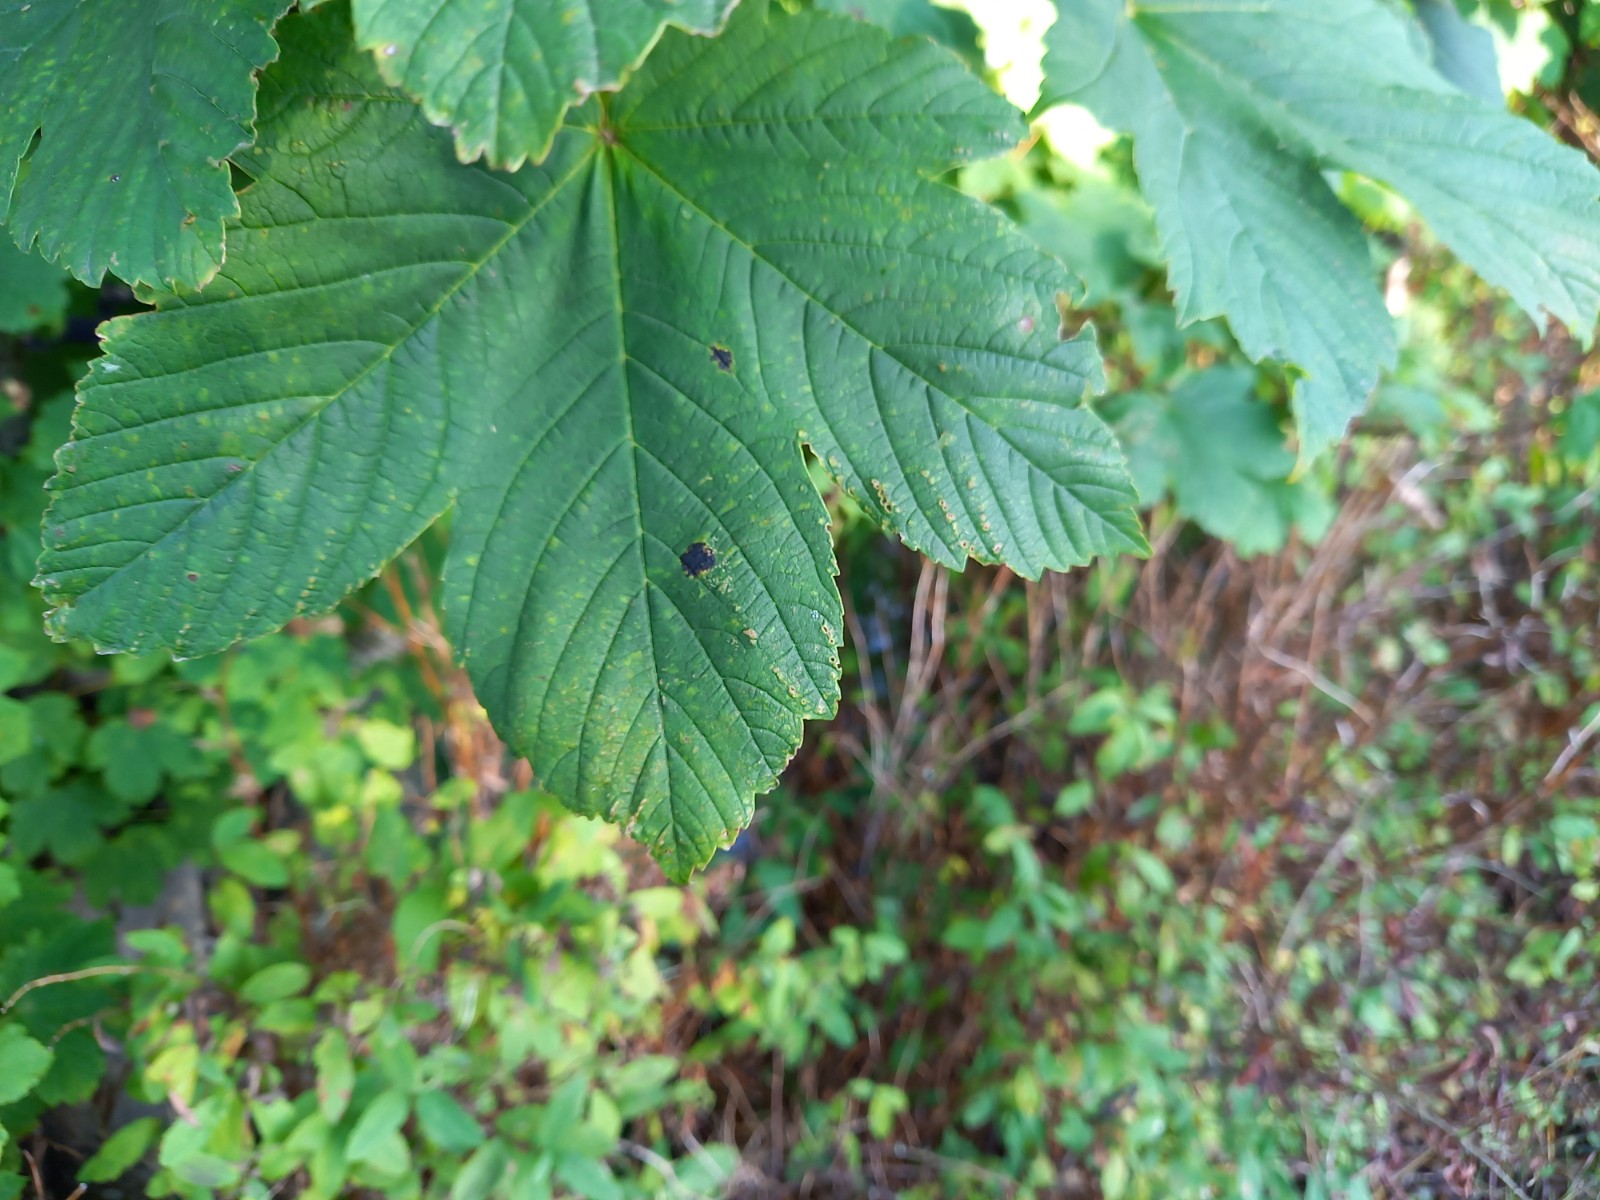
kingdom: Fungi
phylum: Ascomycota
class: Leotiomycetes
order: Rhytismatales
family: Rhytismataceae
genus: Rhytisma
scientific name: Rhytisma acerinum
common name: ahorn-rynkeplet
